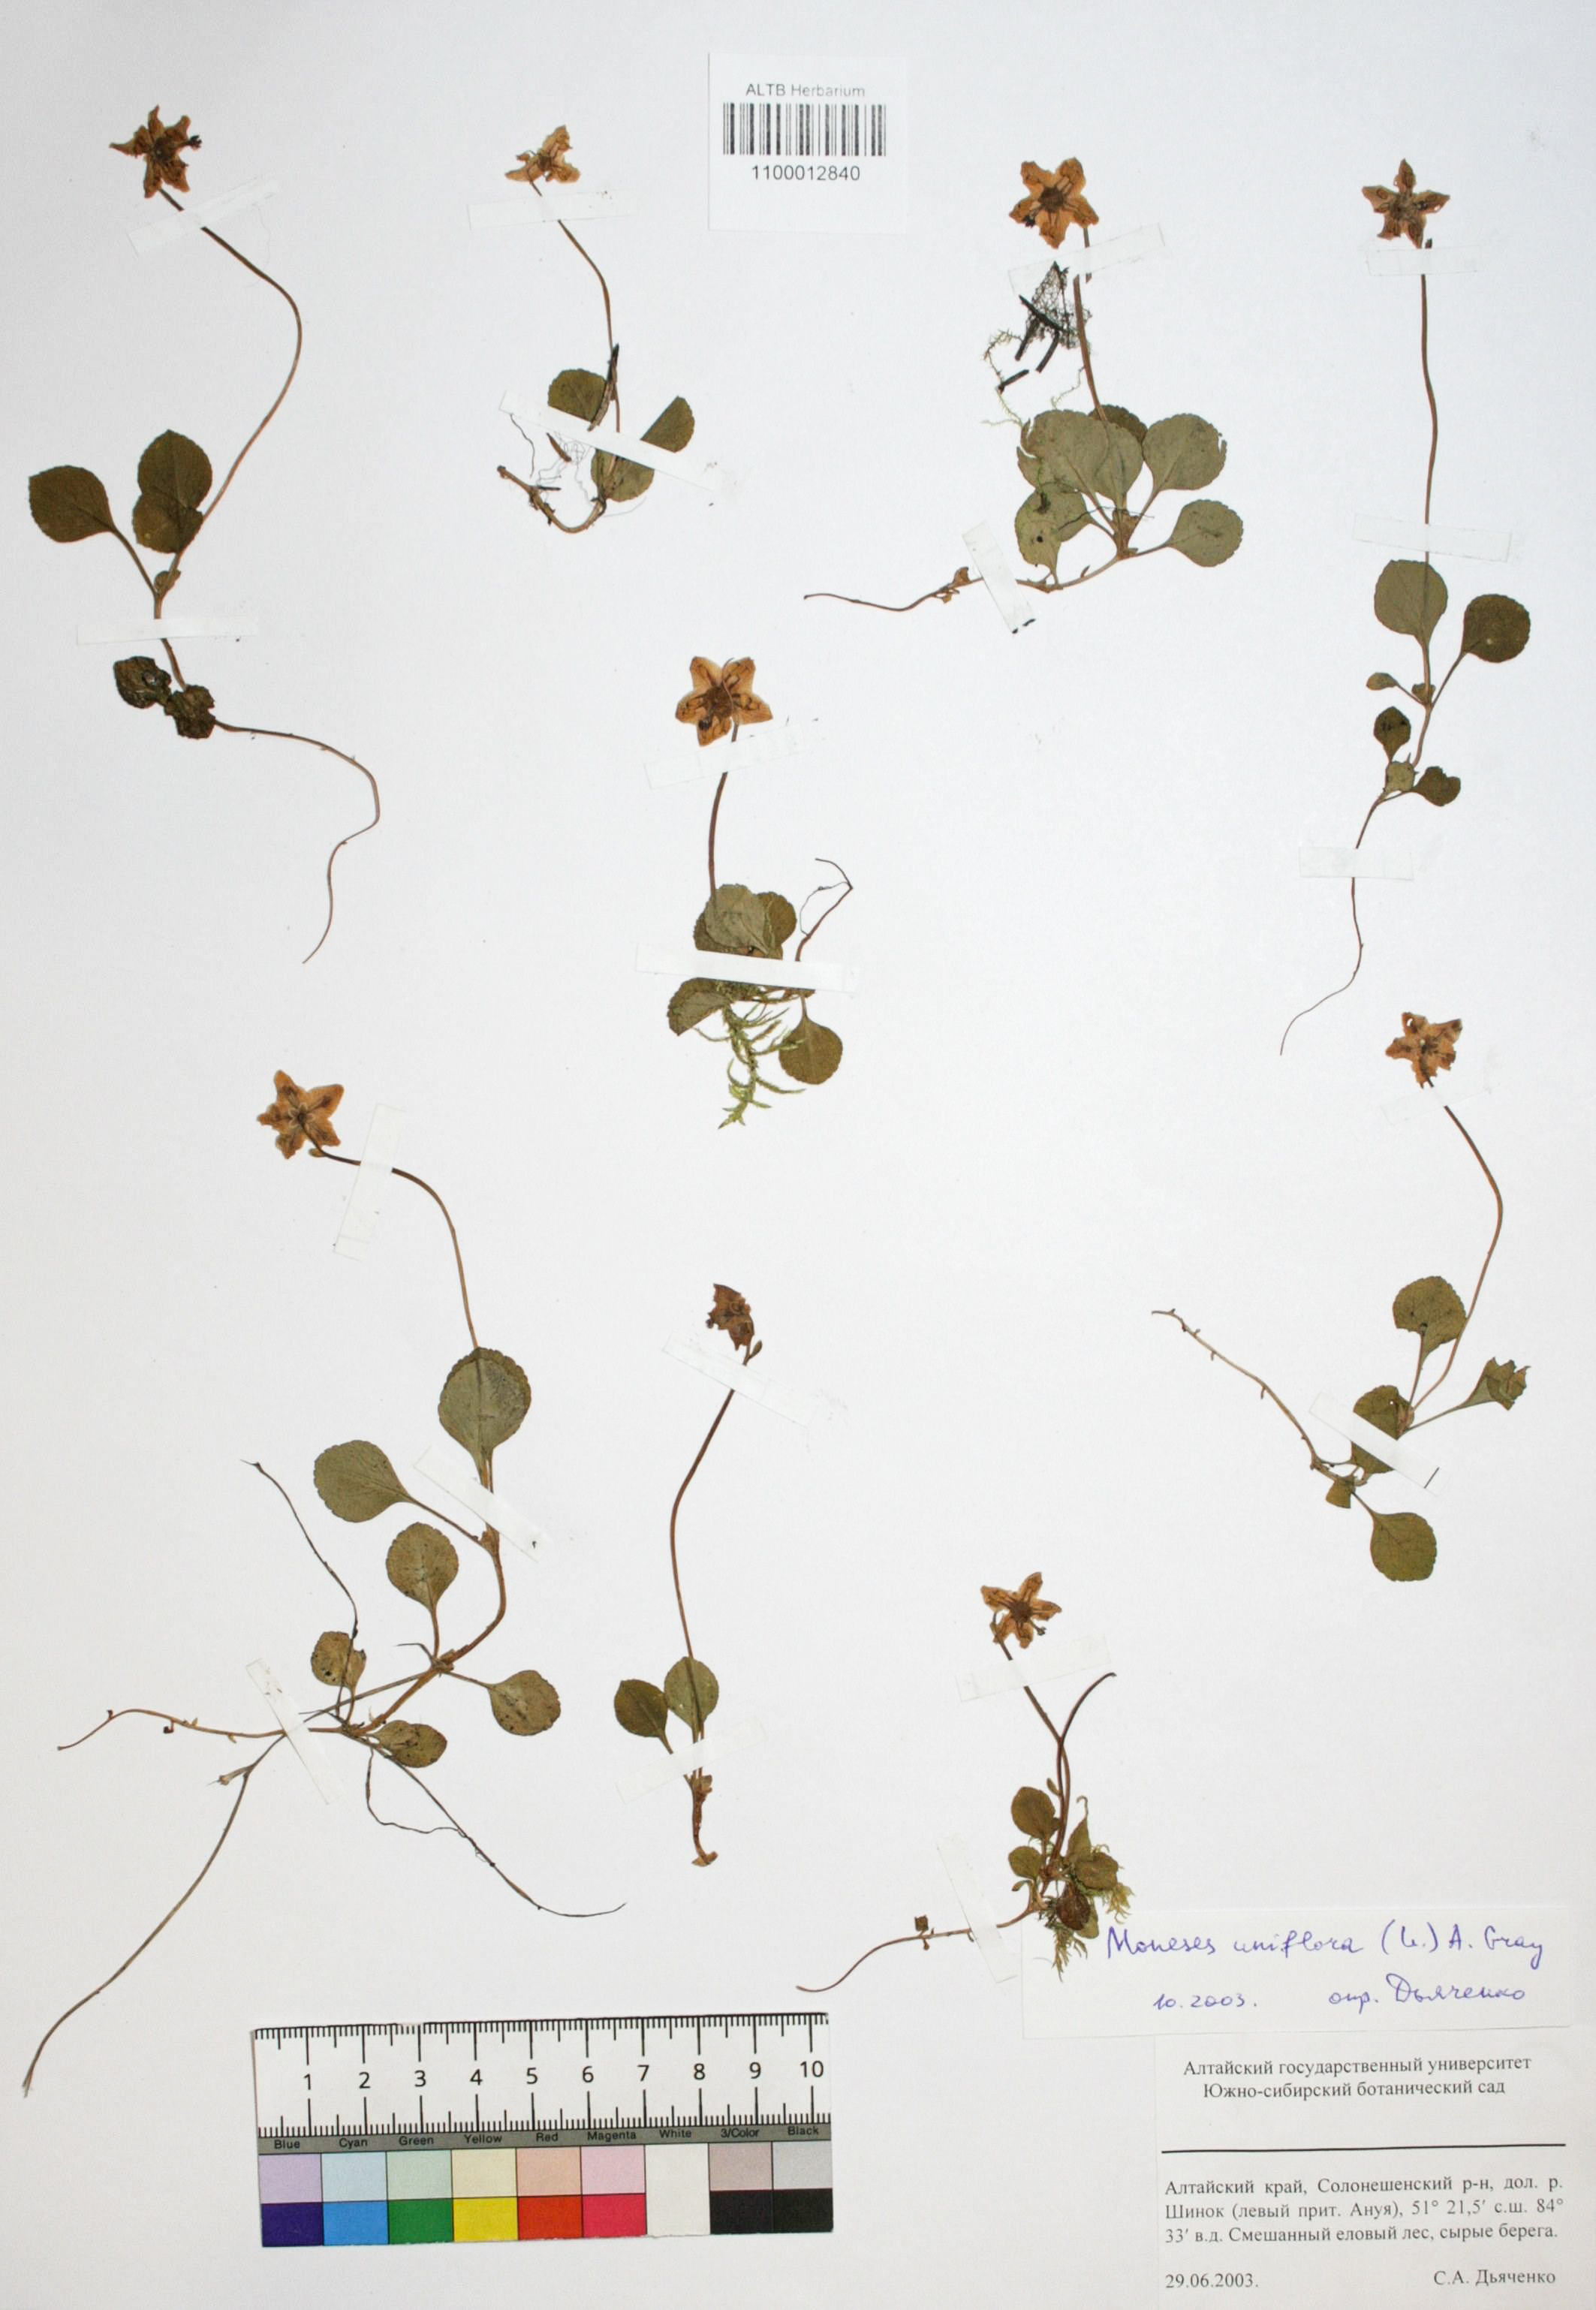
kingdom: Plantae
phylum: Tracheophyta
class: Magnoliopsida
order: Ericales
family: Ericaceae
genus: Moneses
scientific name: Moneses uniflora
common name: One-flowered wintergreen
